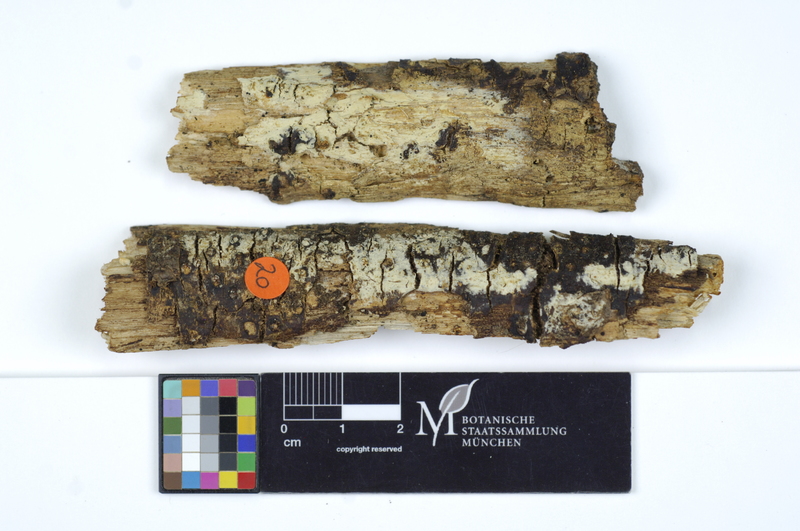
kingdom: Fungi
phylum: Ascomycota
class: Sordariomycetes
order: Xylariales
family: Diatrypaceae
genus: Diatrypella
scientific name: Diatrypella quercina
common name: Oak blackhead
